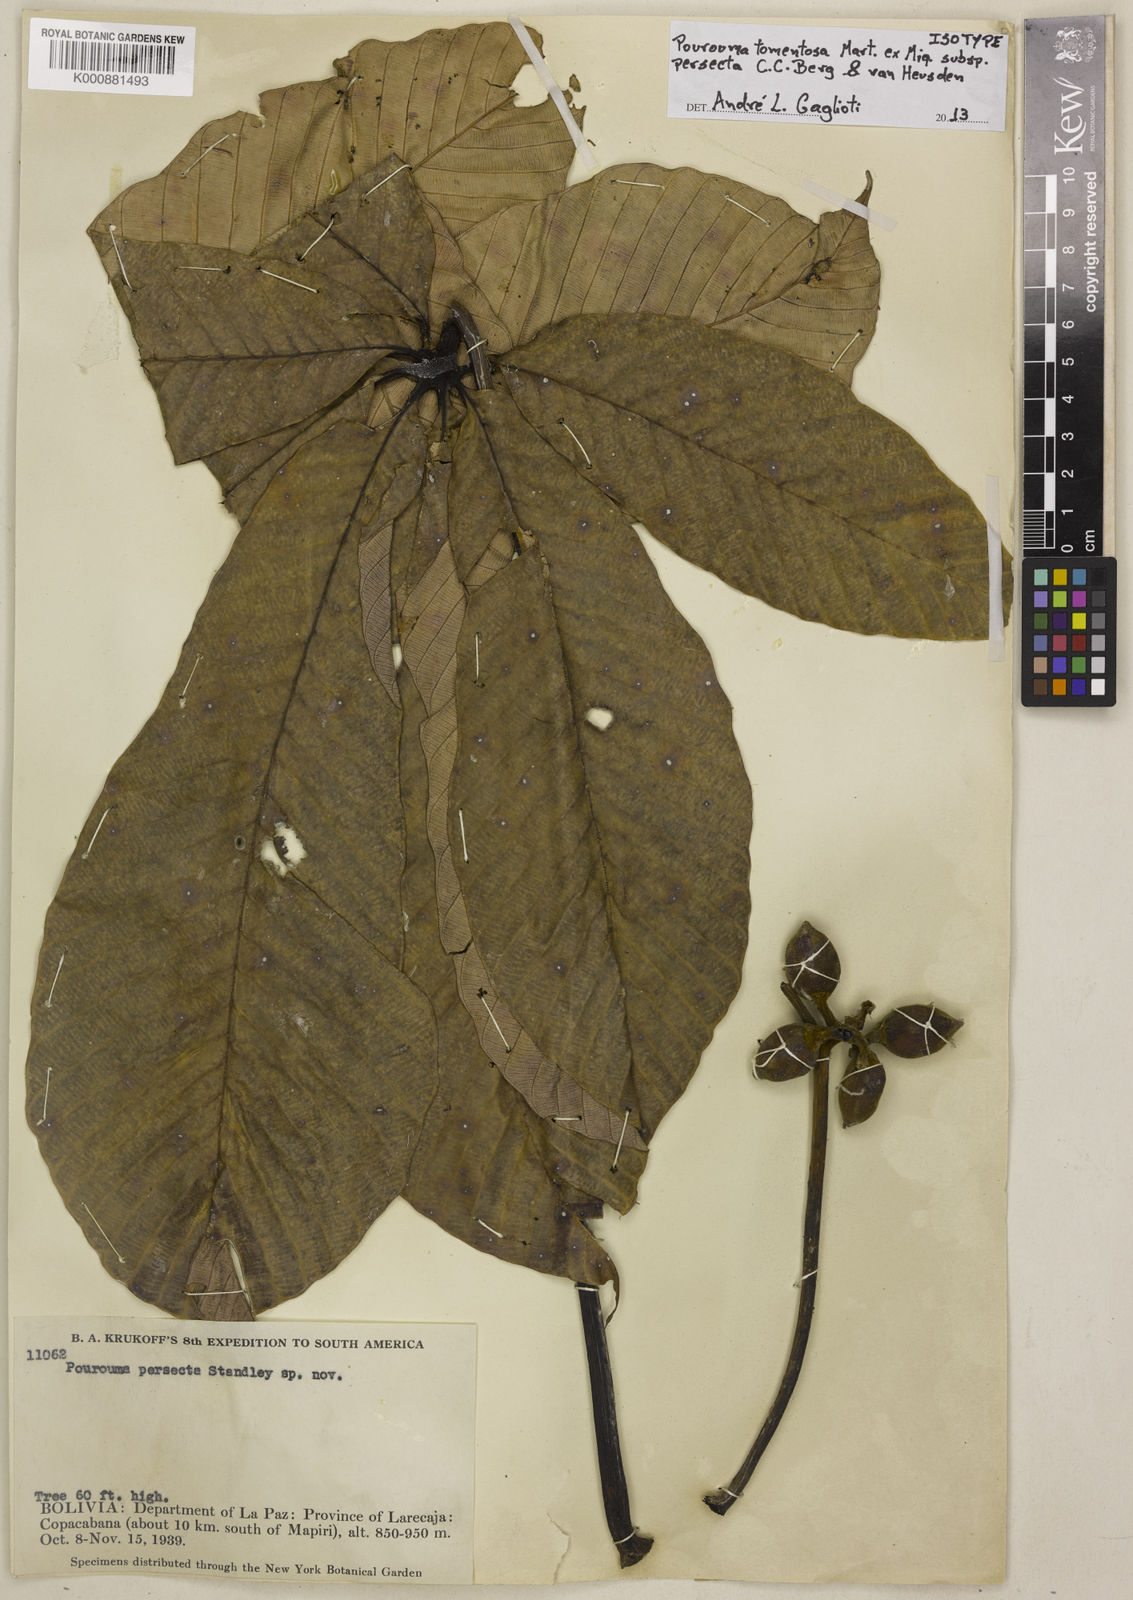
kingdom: Plantae
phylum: Tracheophyta
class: Magnoliopsida
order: Rosales
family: Urticaceae
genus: Pourouma
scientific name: Pourouma tomentosa
